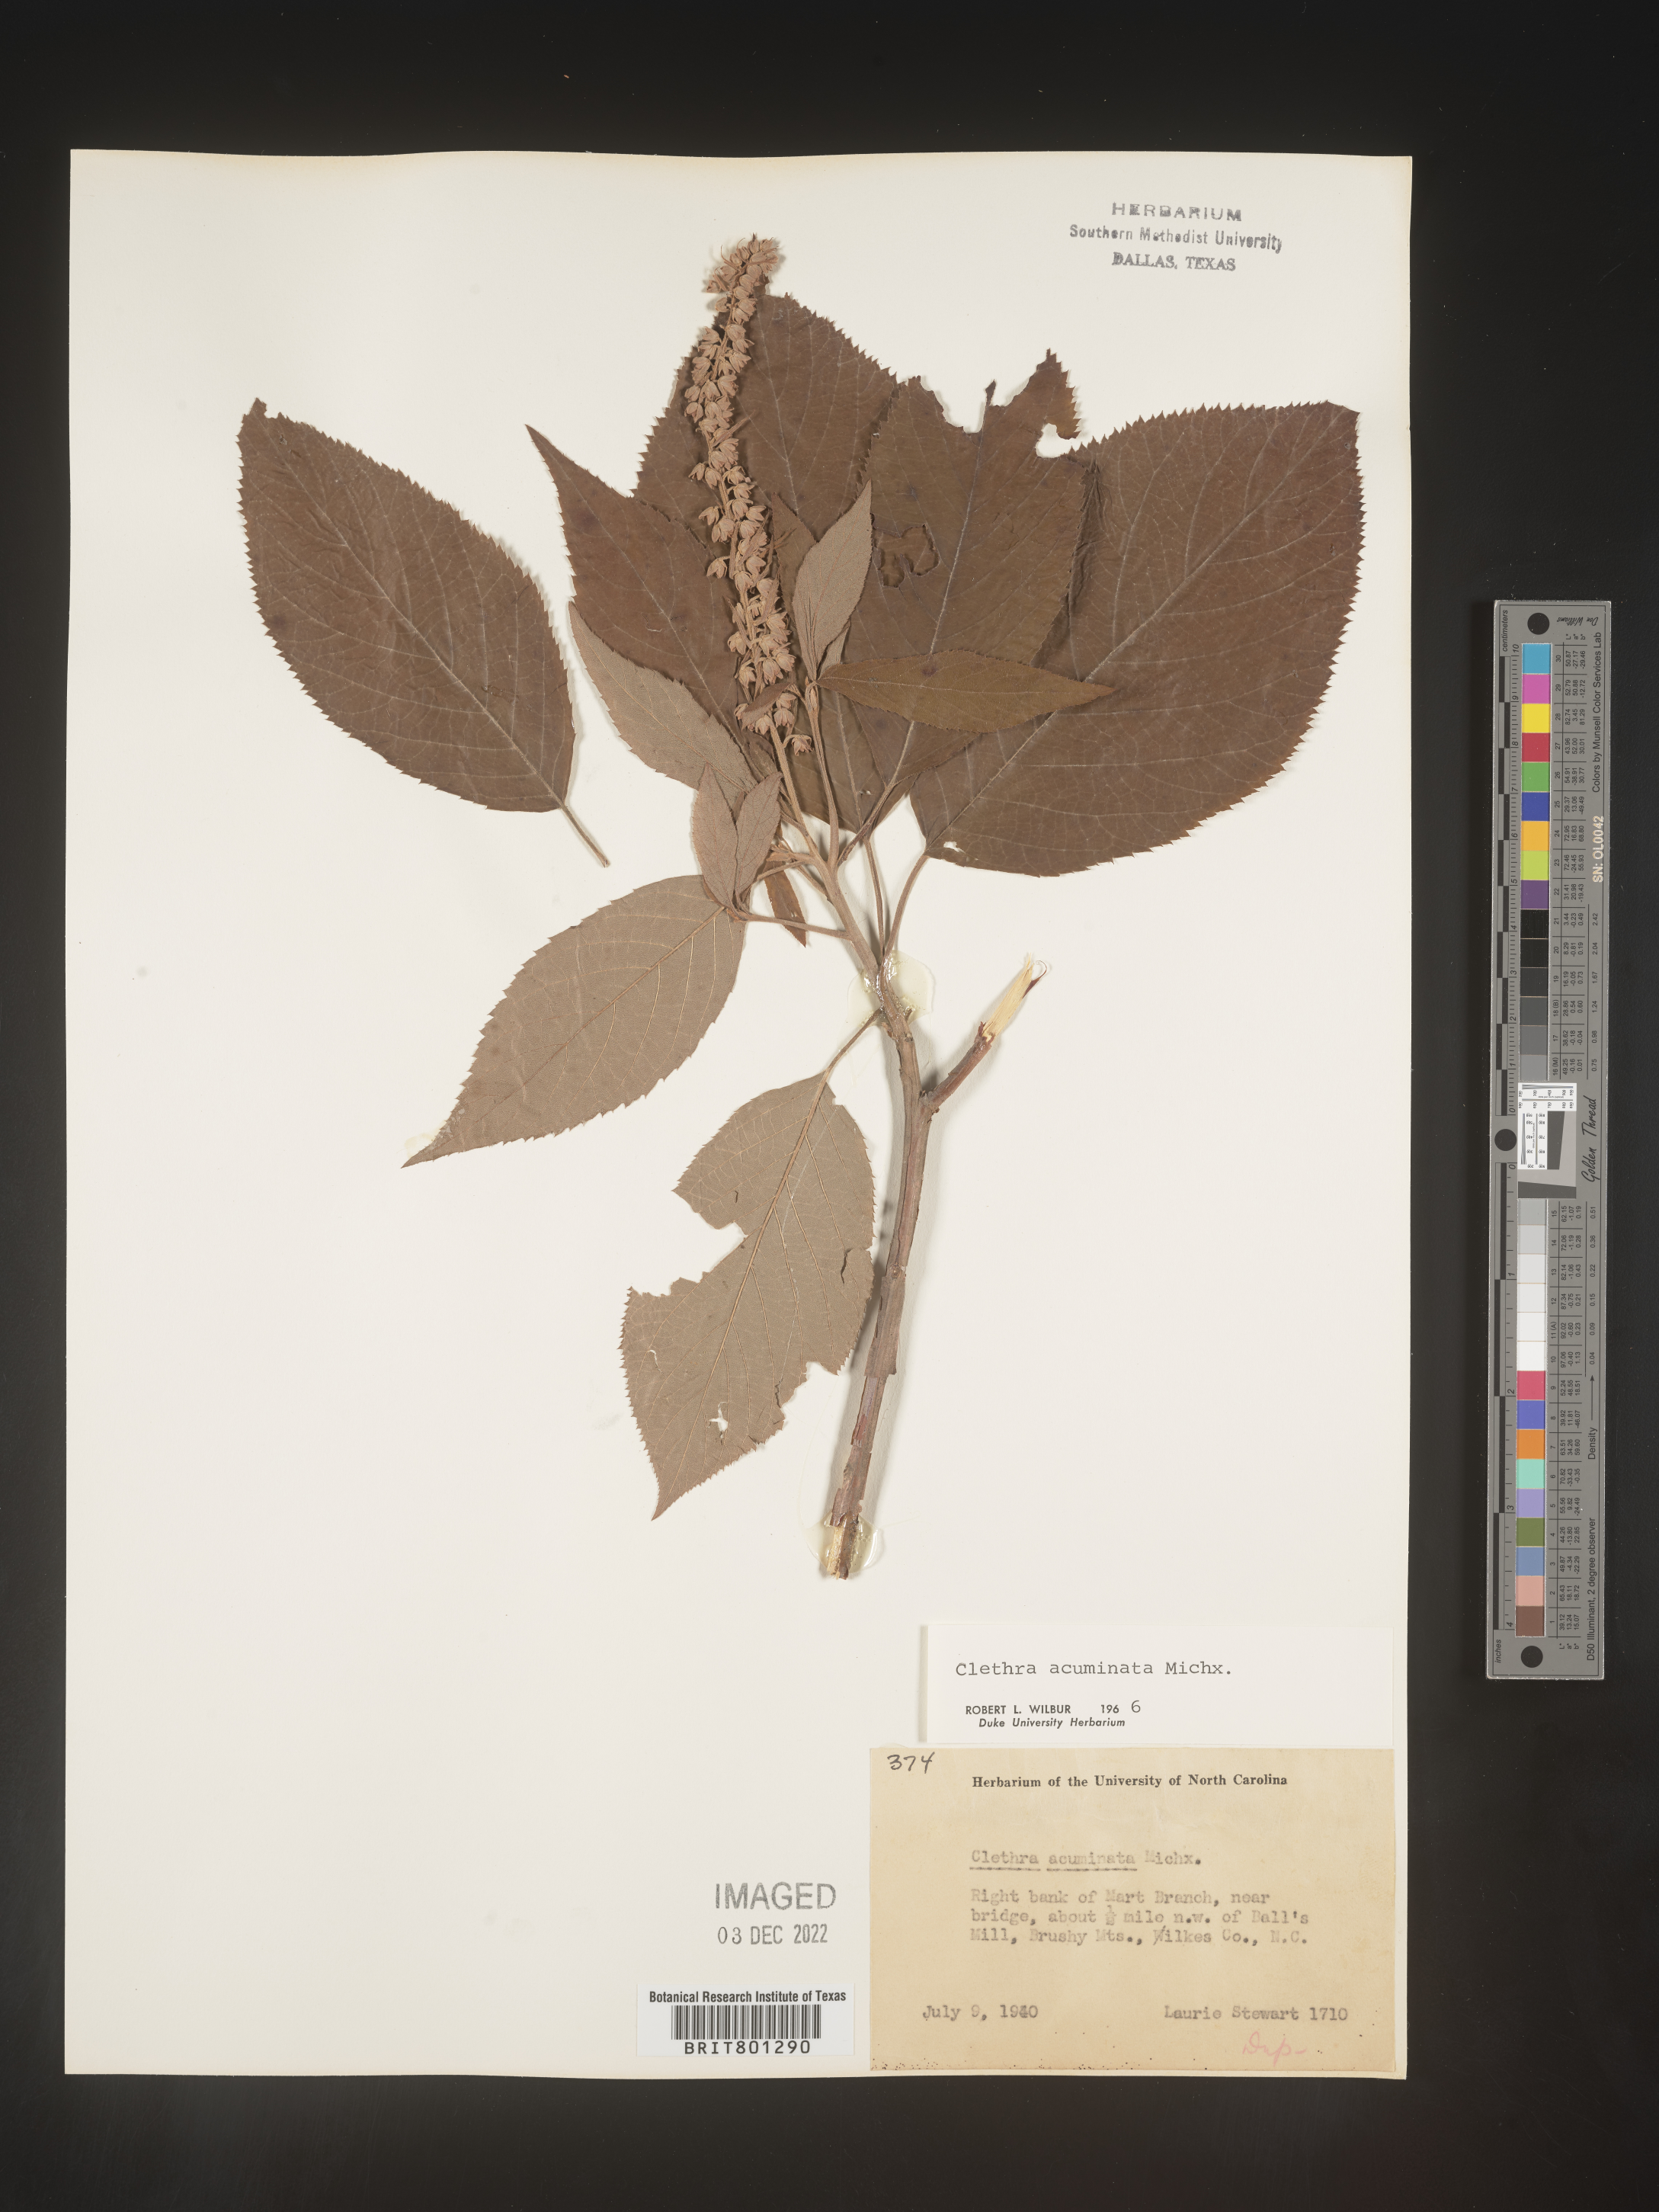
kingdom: Plantae
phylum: Tracheophyta
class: Magnoliopsida
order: Ericales
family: Clethraceae
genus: Clethra
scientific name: Clethra acuminata
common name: Mountain sweet pepperbush
